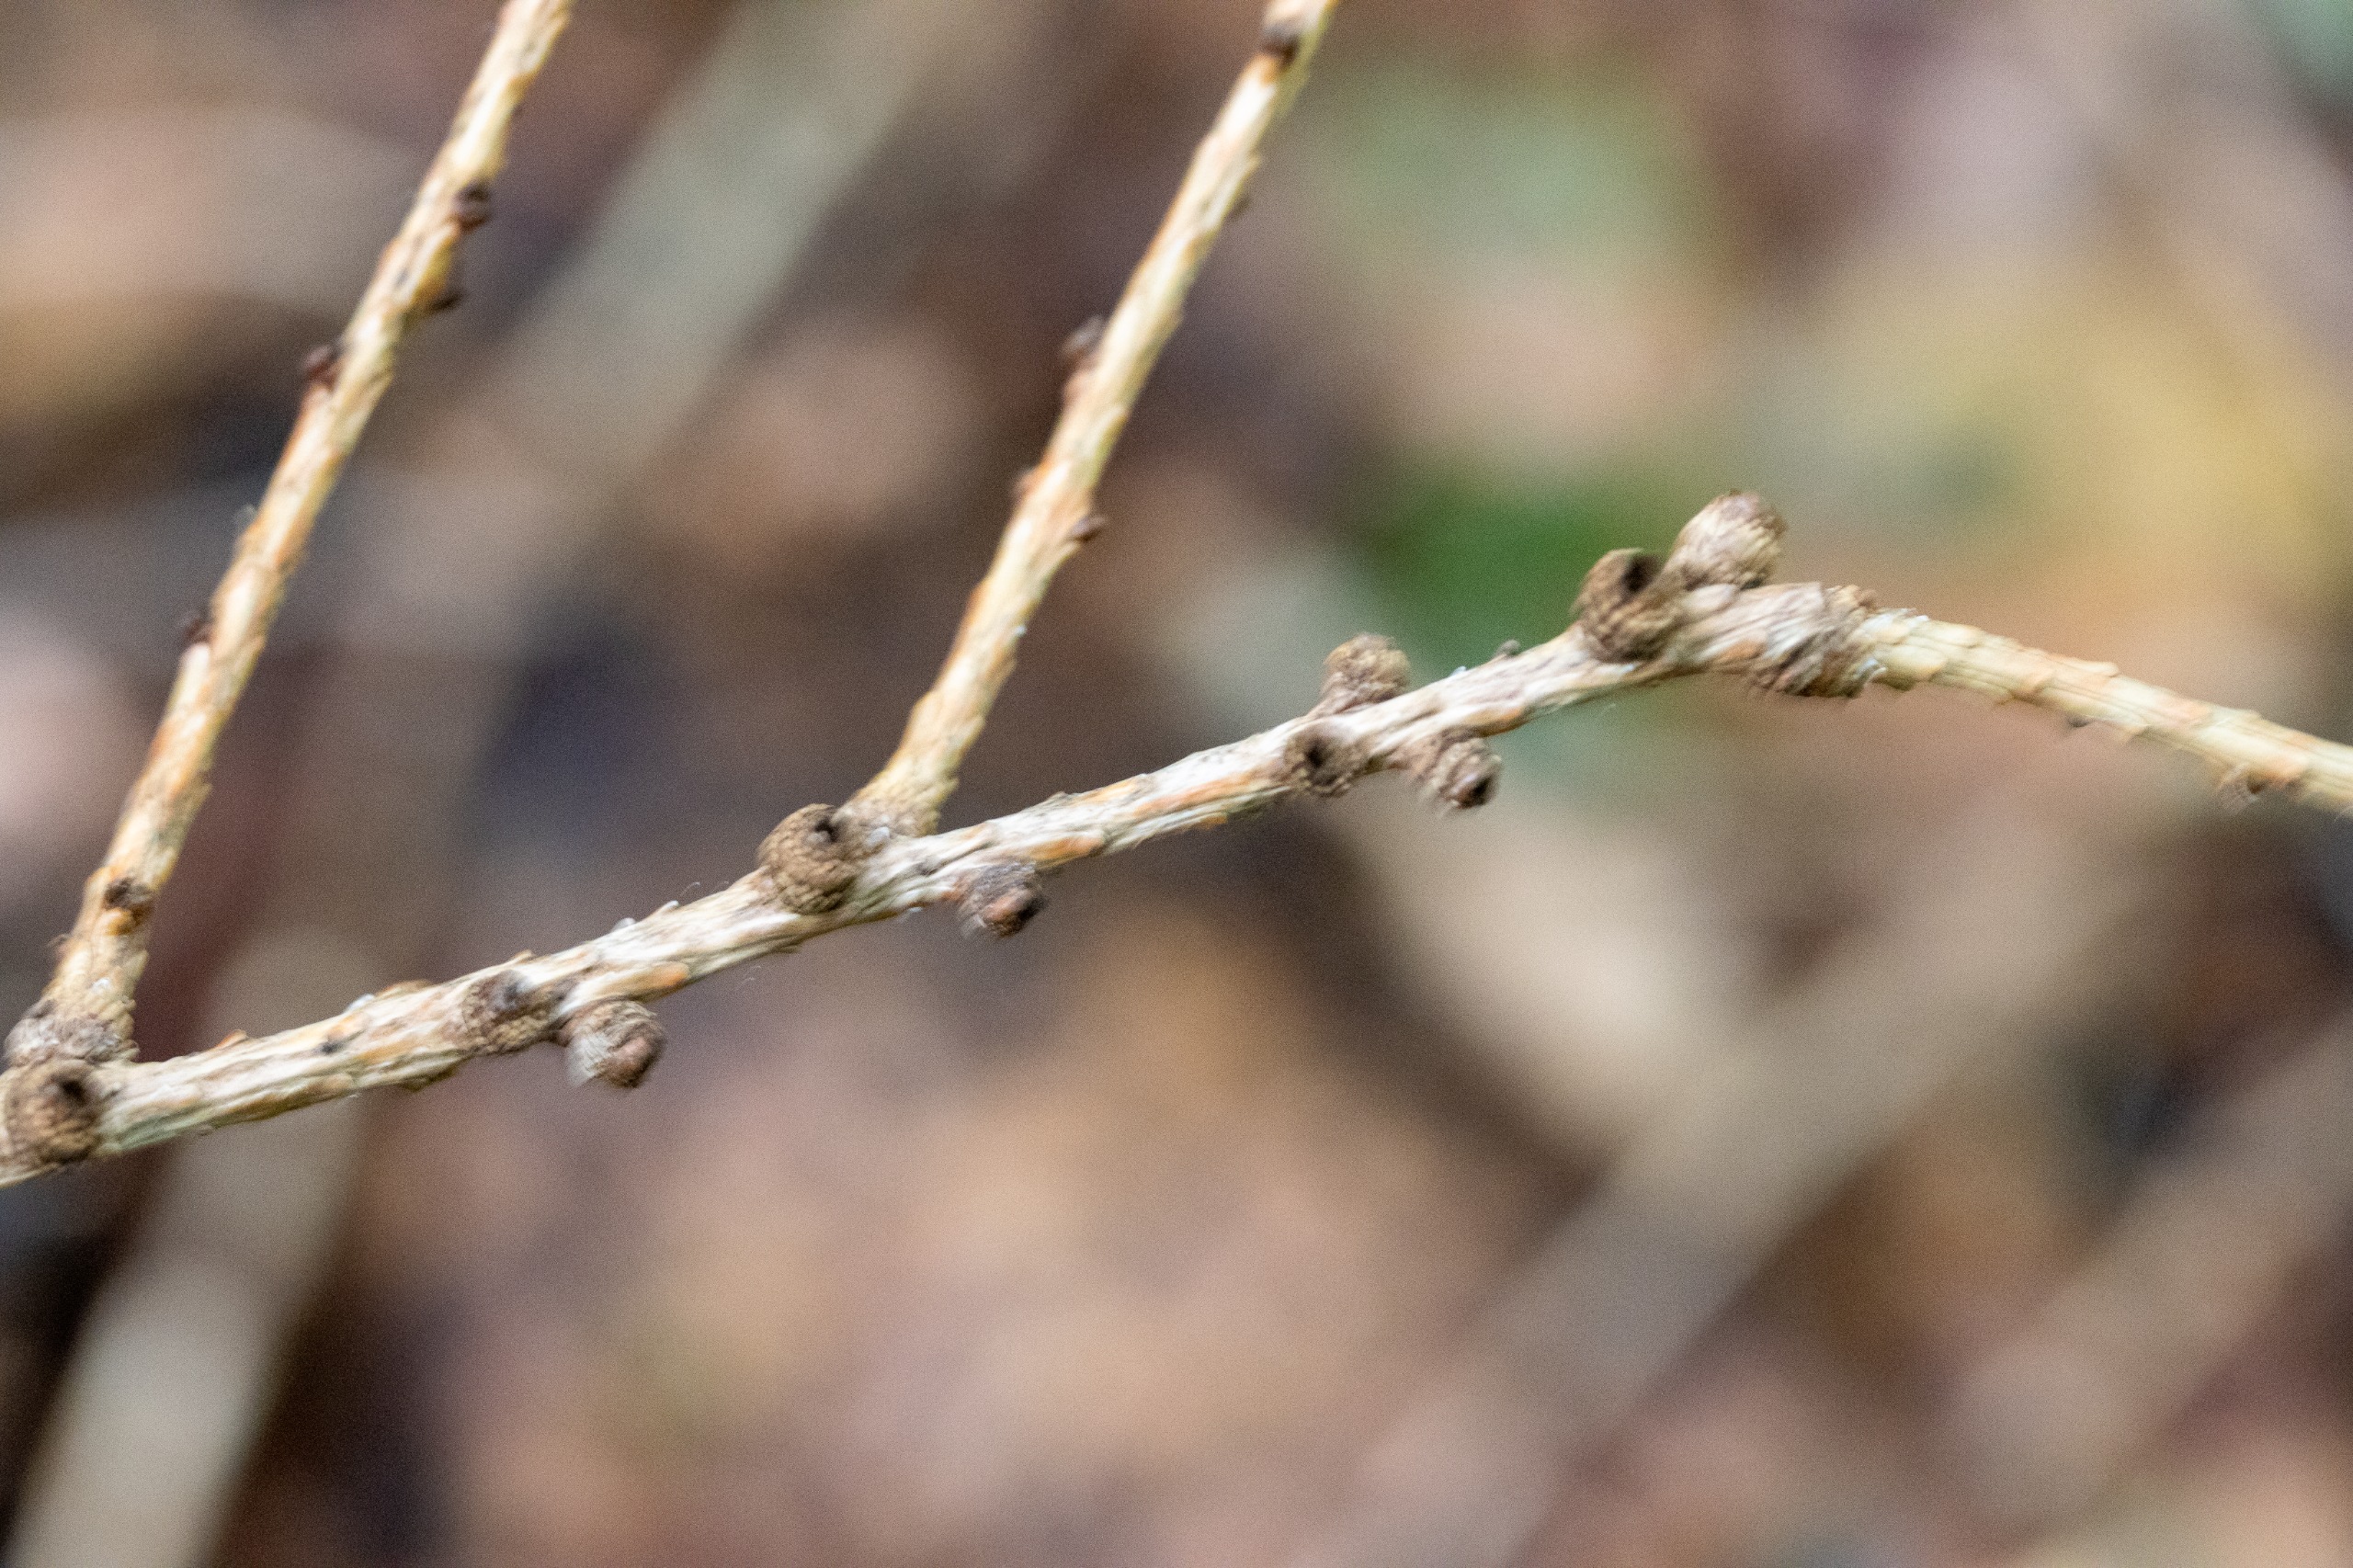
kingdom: Plantae
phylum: Tracheophyta
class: Pinopsida
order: Pinales
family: Pinaceae
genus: Larix
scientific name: Larix decidua
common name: Europæisk lærk
